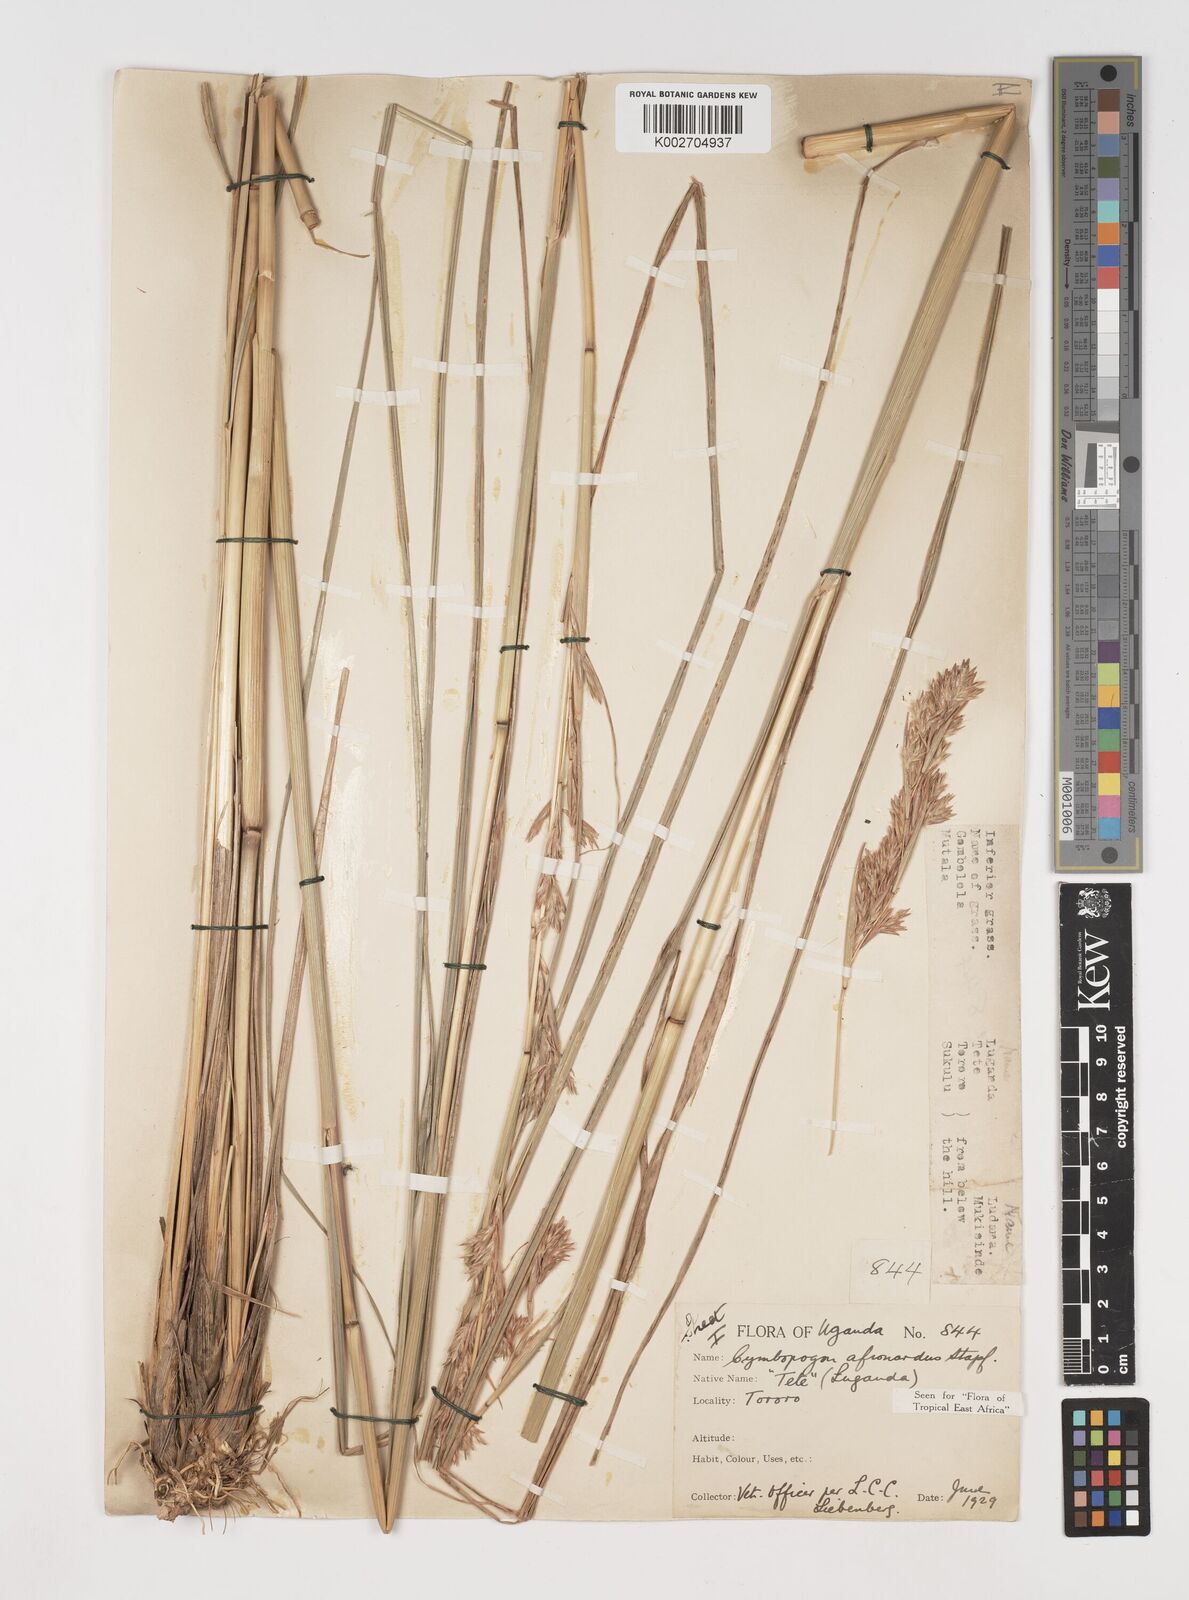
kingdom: Plantae
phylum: Tracheophyta
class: Liliopsida
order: Poales
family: Poaceae
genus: Cymbopogon
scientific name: Cymbopogon nardus
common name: Giant turpentine grass
